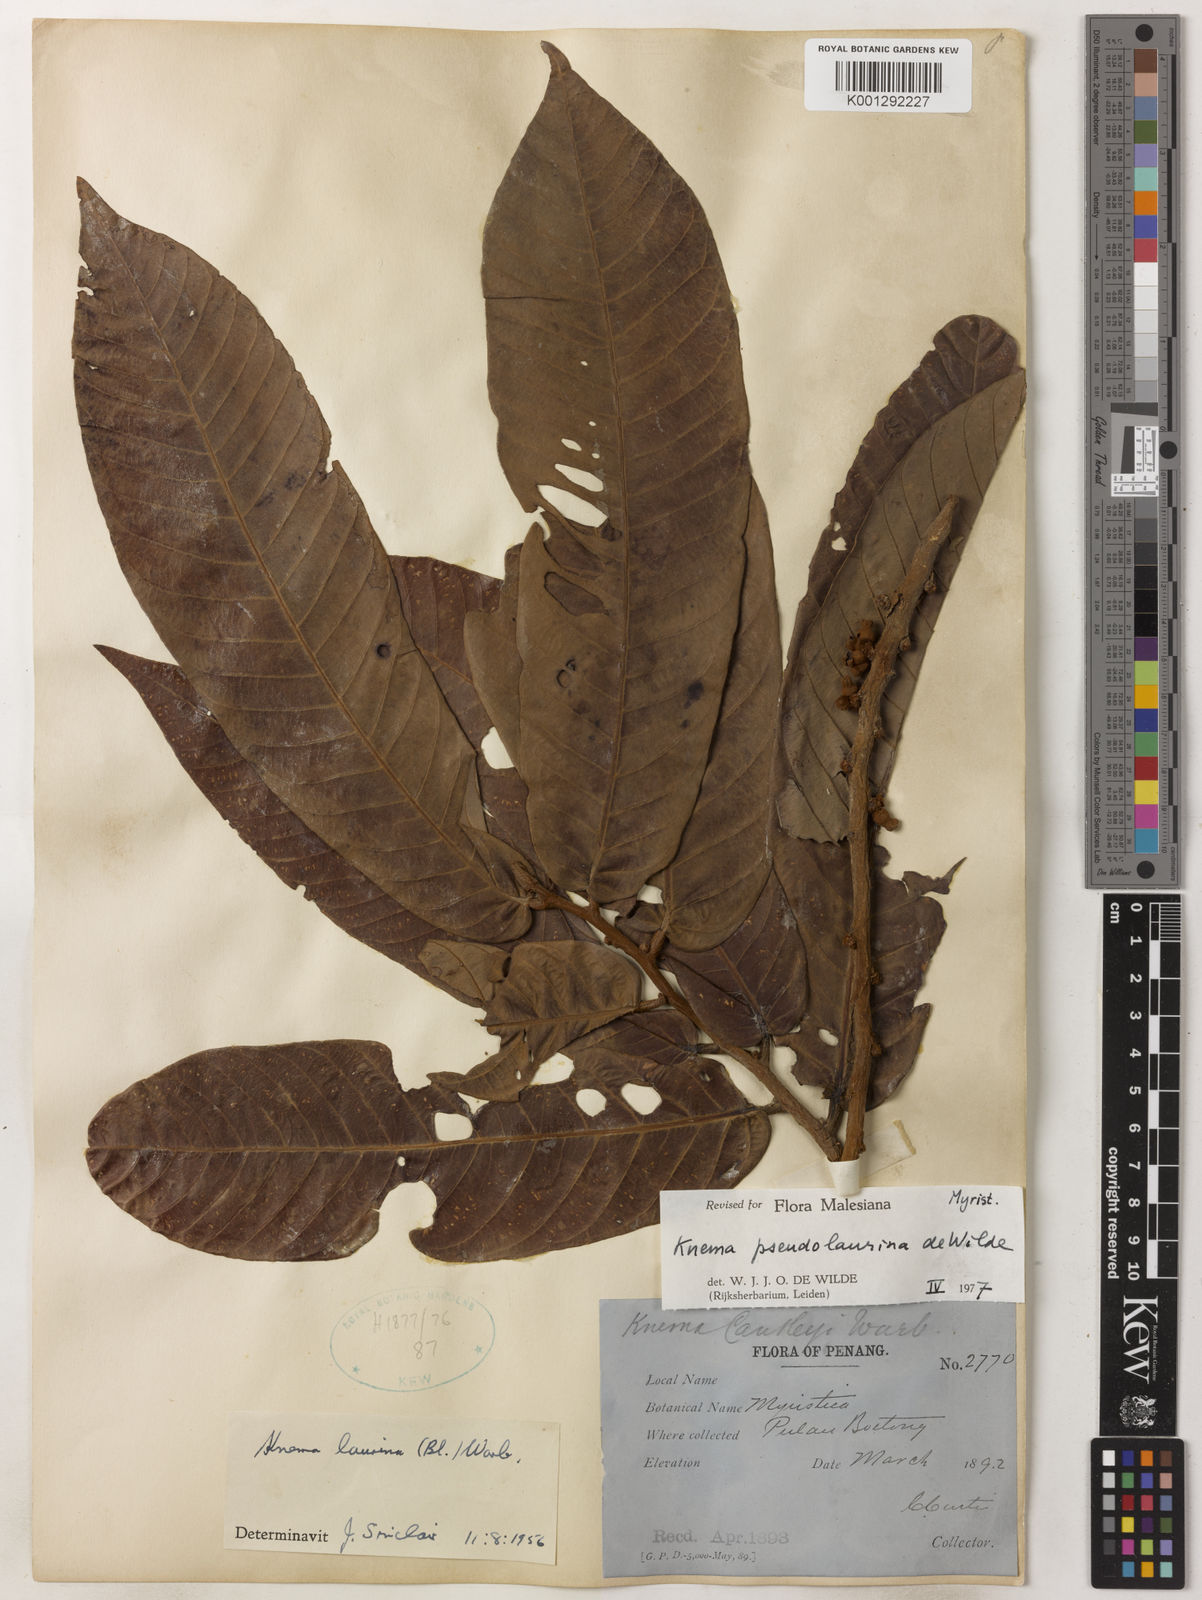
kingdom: Plantae
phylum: Tracheophyta
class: Magnoliopsida
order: Magnoliales
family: Myristicaceae
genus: Knema
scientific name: Knema pseudolaurina
